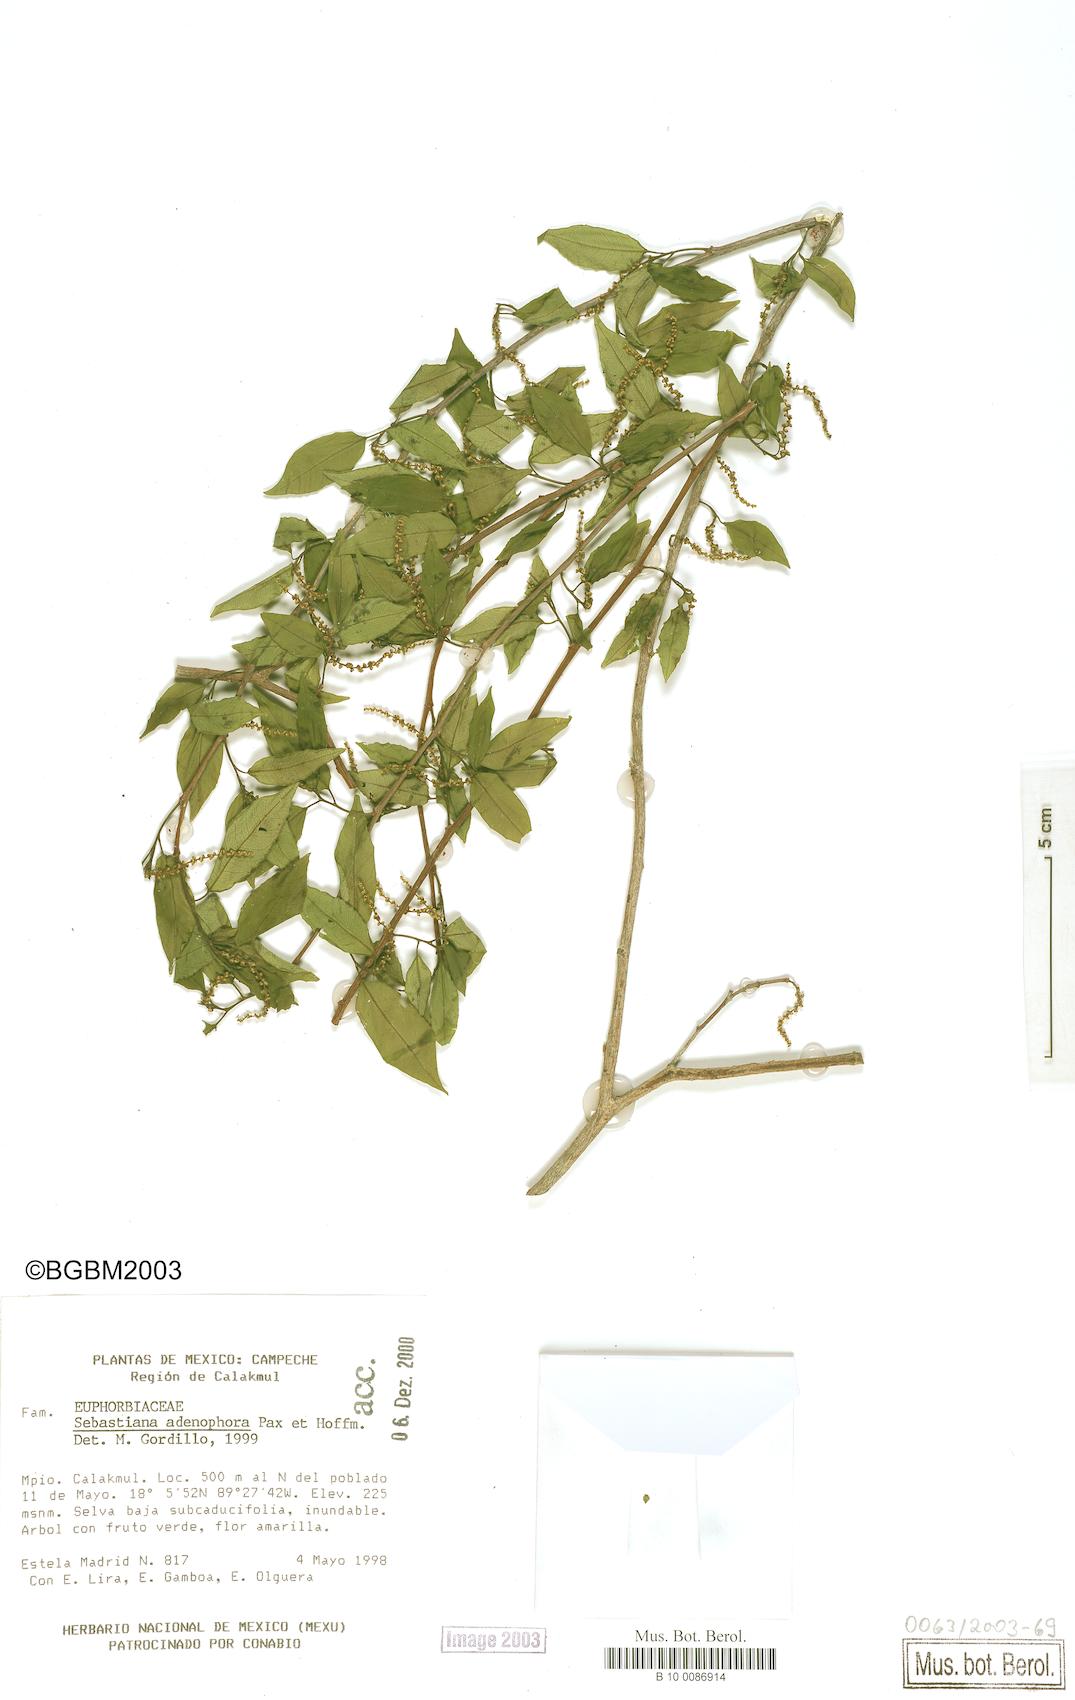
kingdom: Plantae
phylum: Tracheophyta
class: Magnoliopsida
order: Malpighiales
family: Euphorbiaceae
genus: Sebastiania
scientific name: Sebastiania glandulosa
